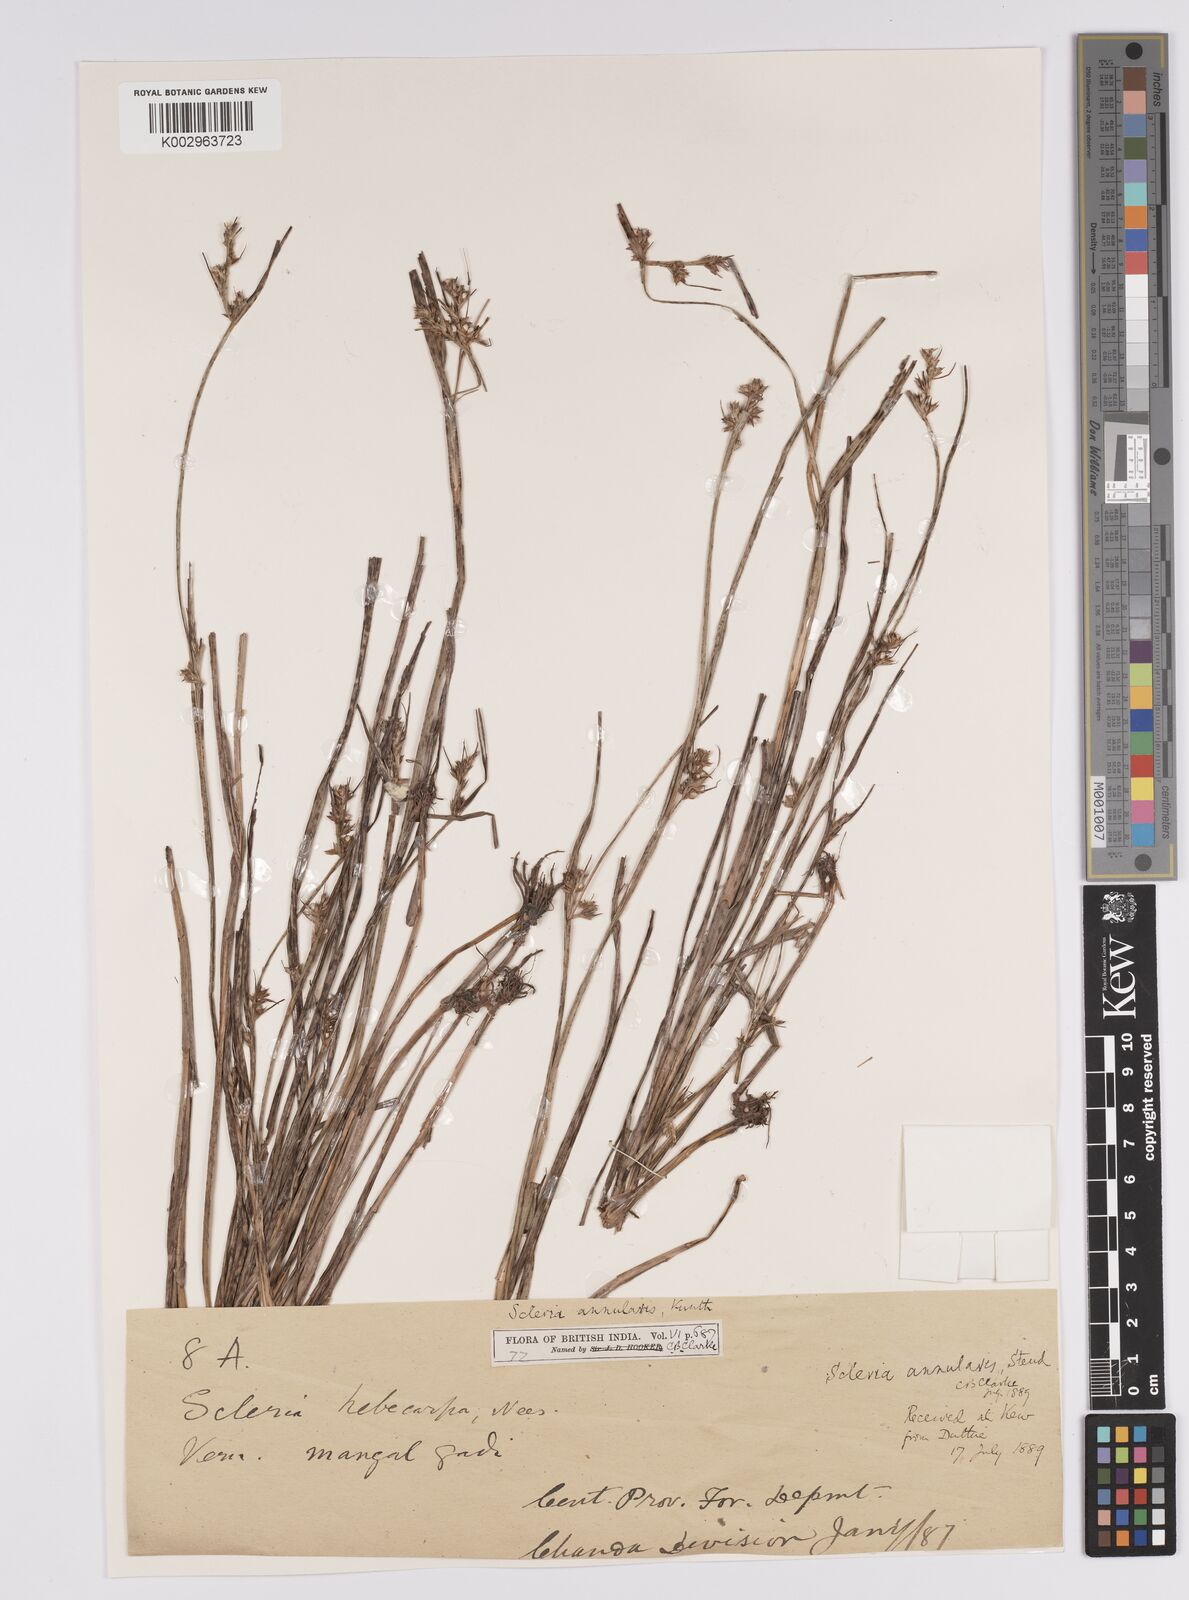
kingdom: Plantae
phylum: Tracheophyta
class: Liliopsida
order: Poales
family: Cyperaceae
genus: Scleria
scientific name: Scleria levis
